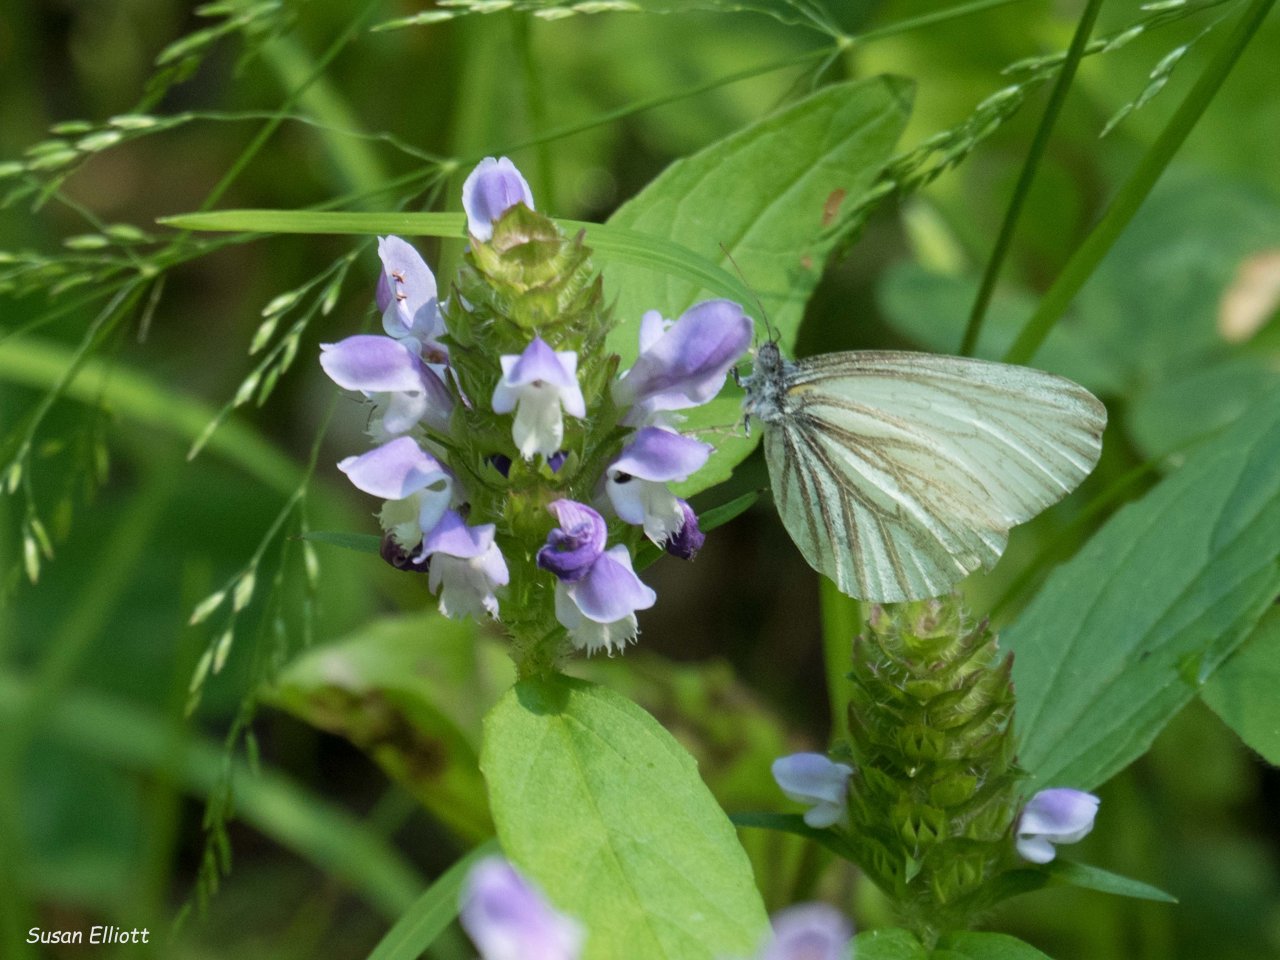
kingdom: Animalia
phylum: Arthropoda
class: Insecta
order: Lepidoptera
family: Pieridae
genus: Pieris
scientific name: Pieris oleracea
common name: Mustard White
